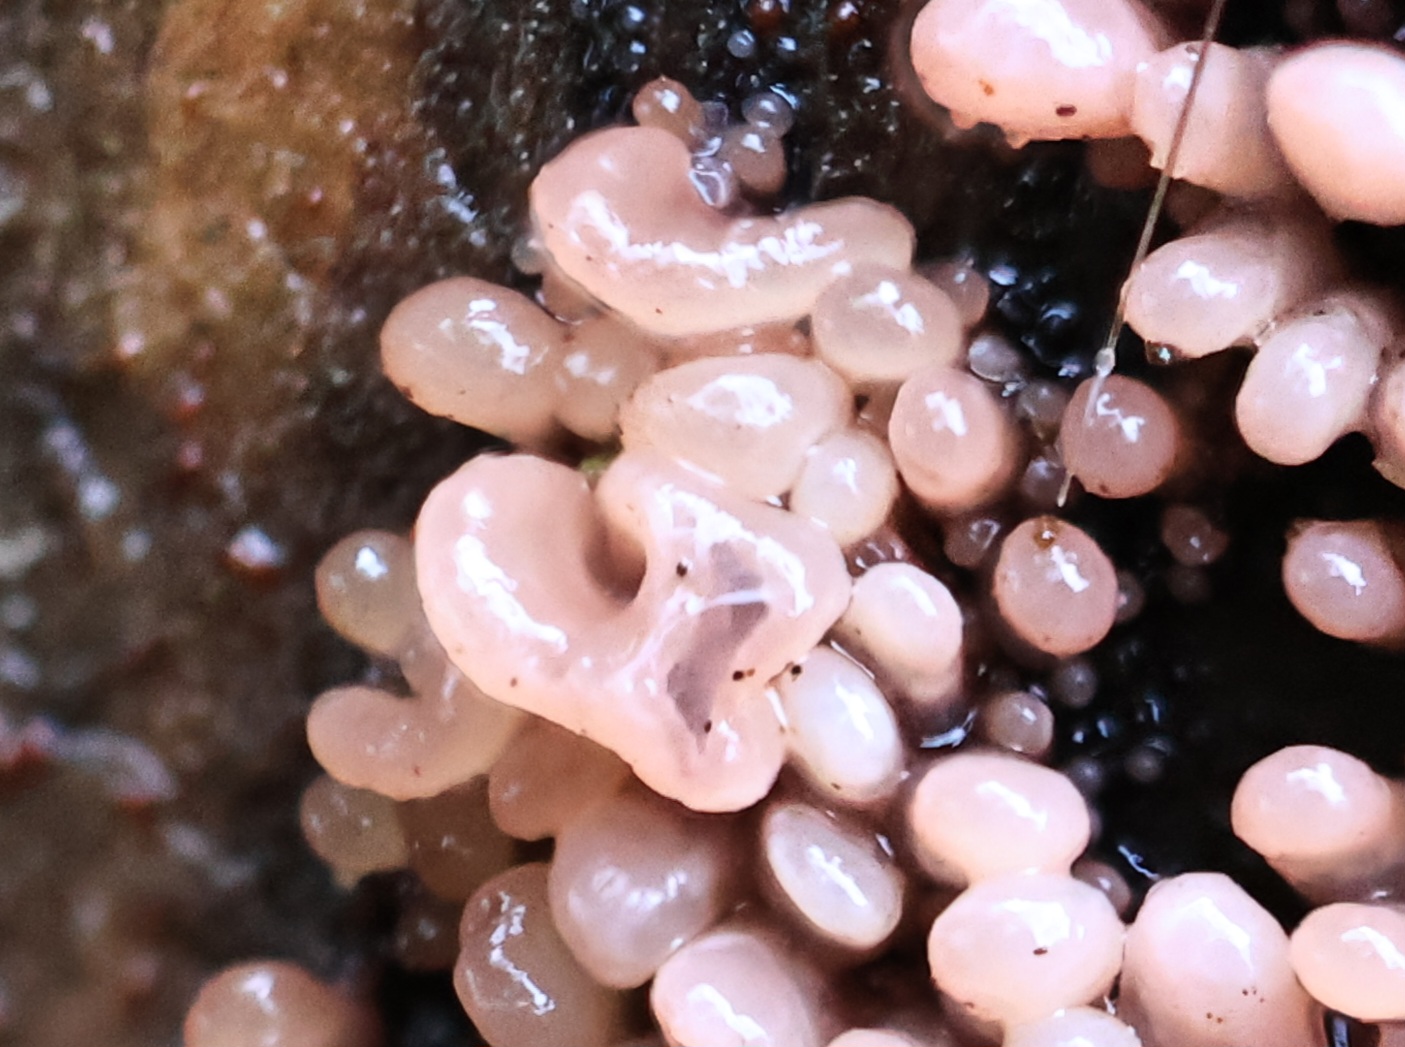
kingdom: Fungi
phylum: Ascomycota
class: Leotiomycetes
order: Helotiales
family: Gelatinodiscaceae
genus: Ascocoryne
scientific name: Ascocoryne sarcoides
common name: rødlilla sejskive
